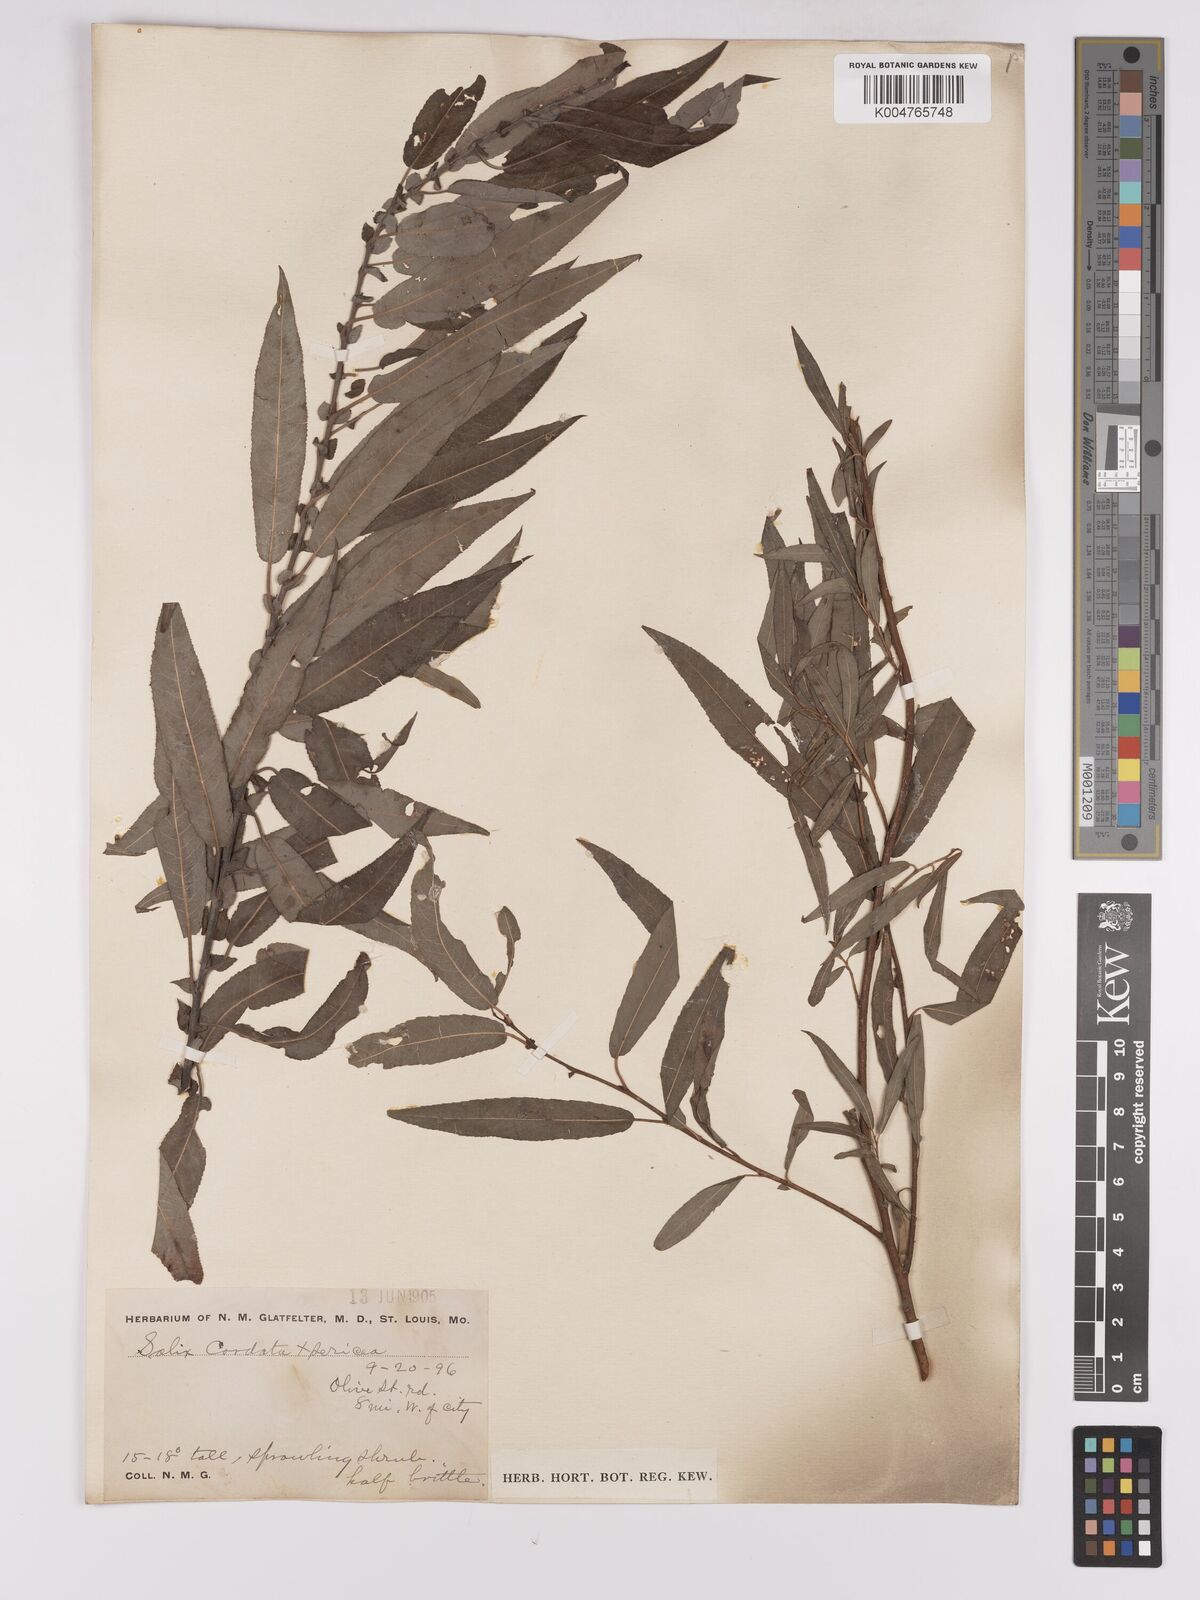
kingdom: Plantae
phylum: Tracheophyta
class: Magnoliopsida
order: Malpighiales
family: Salicaceae
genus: Salix
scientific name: Salix cordata
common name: Heart-leaf willow
